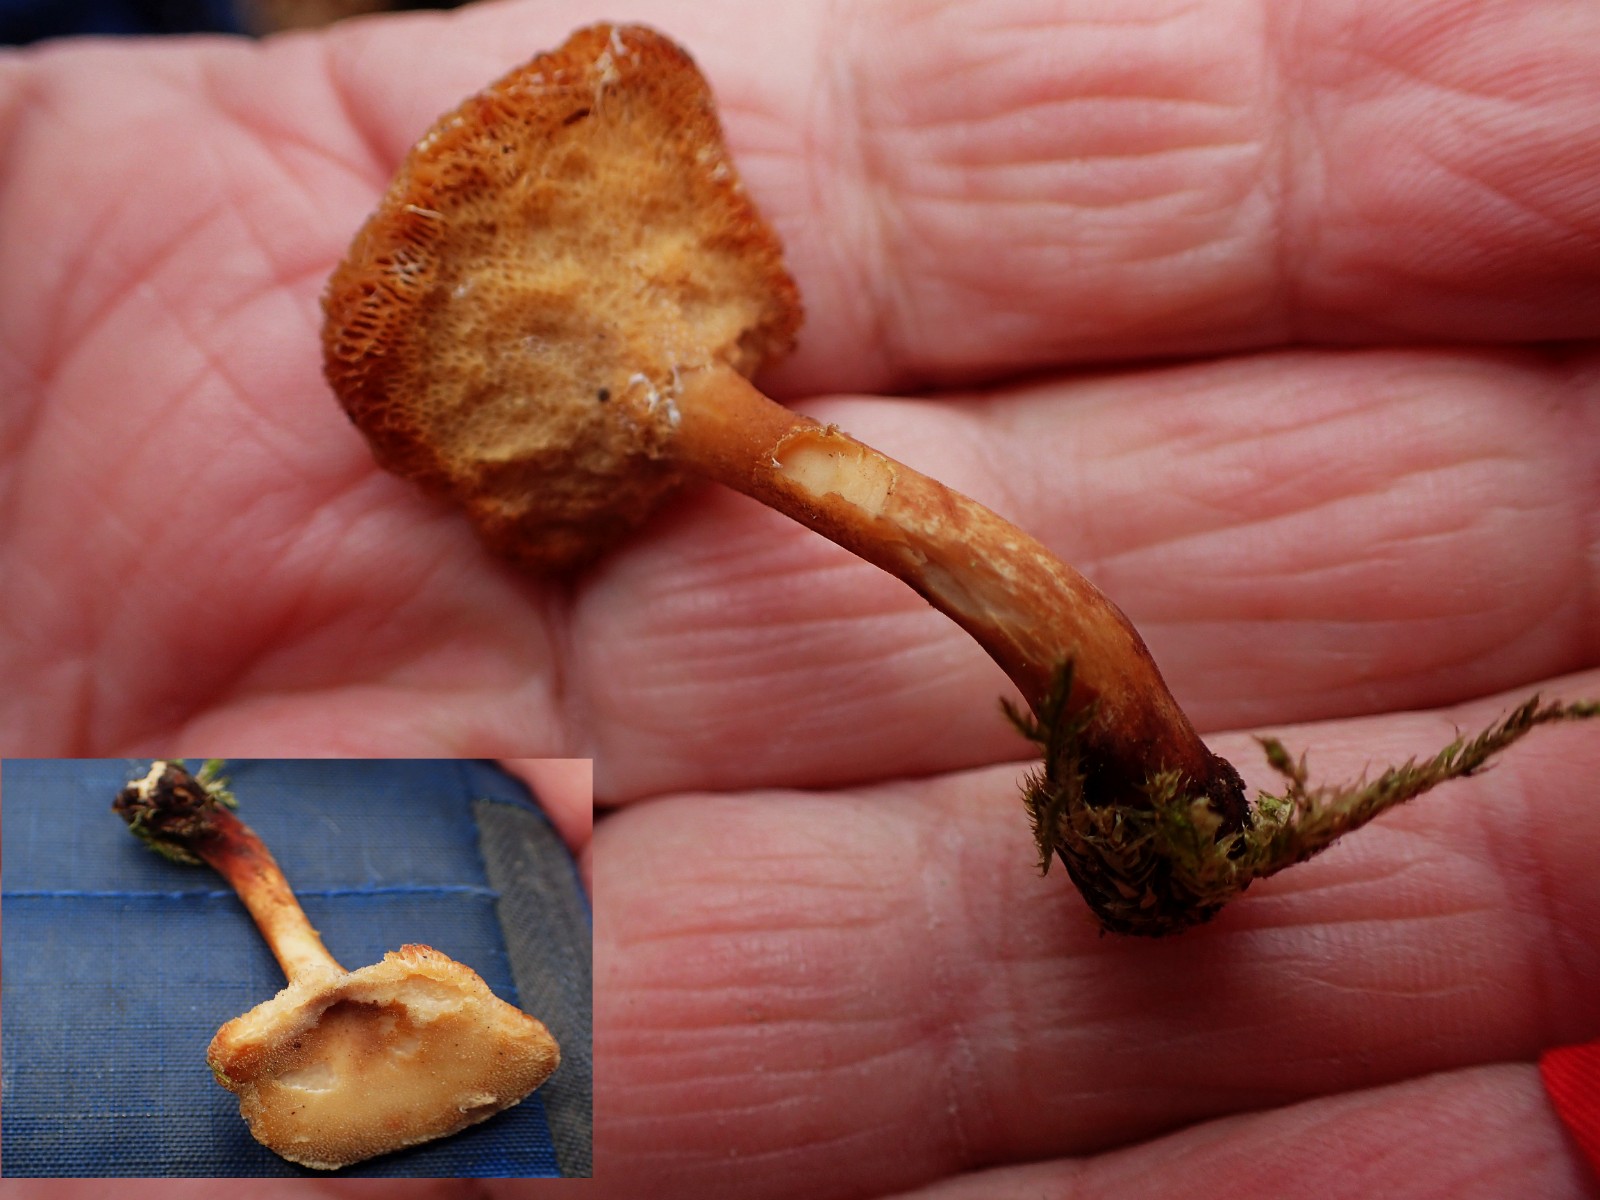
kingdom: Fungi
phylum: Basidiomycota
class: Agaricomycetes
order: Polyporales
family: Polyporaceae
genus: Lentinus
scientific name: Lentinus
